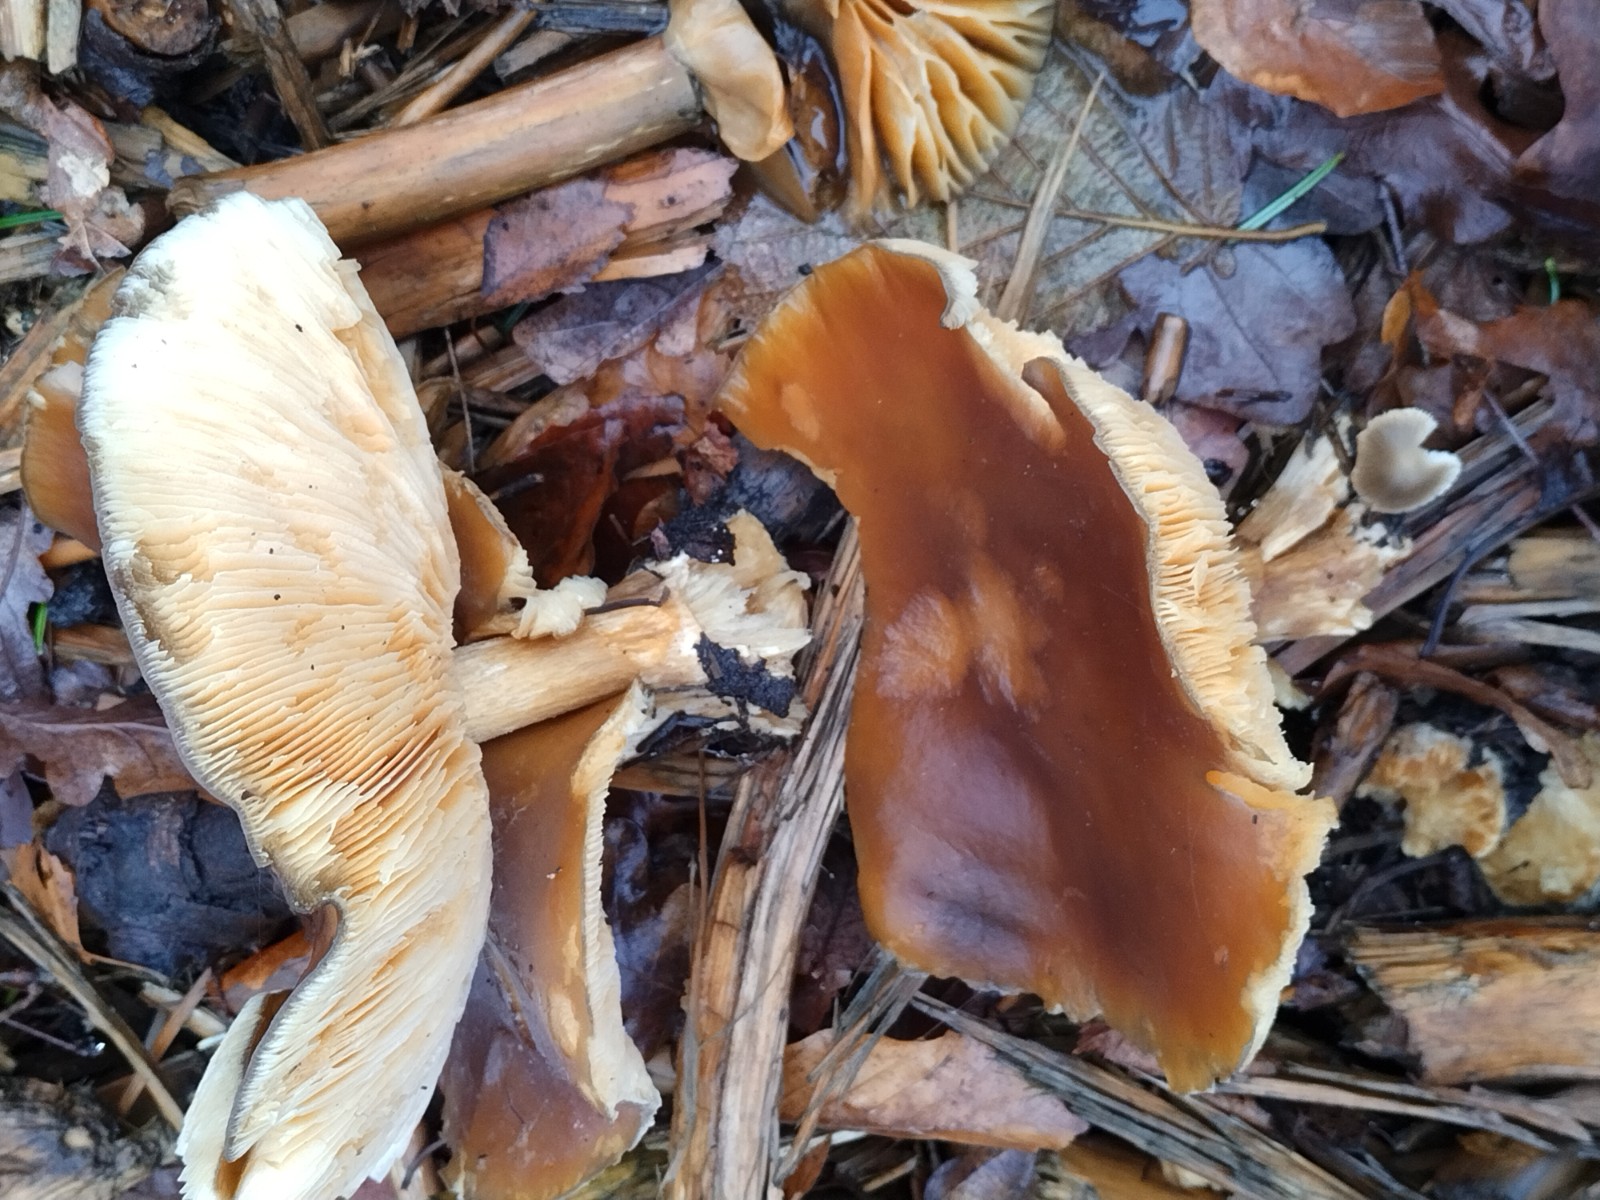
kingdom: Fungi
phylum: Basidiomycota
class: Agaricomycetes
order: Agaricales
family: Tricholomataceae
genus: Melanoleuca
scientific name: Melanoleuca cognata
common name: gyldengrå munkehat
